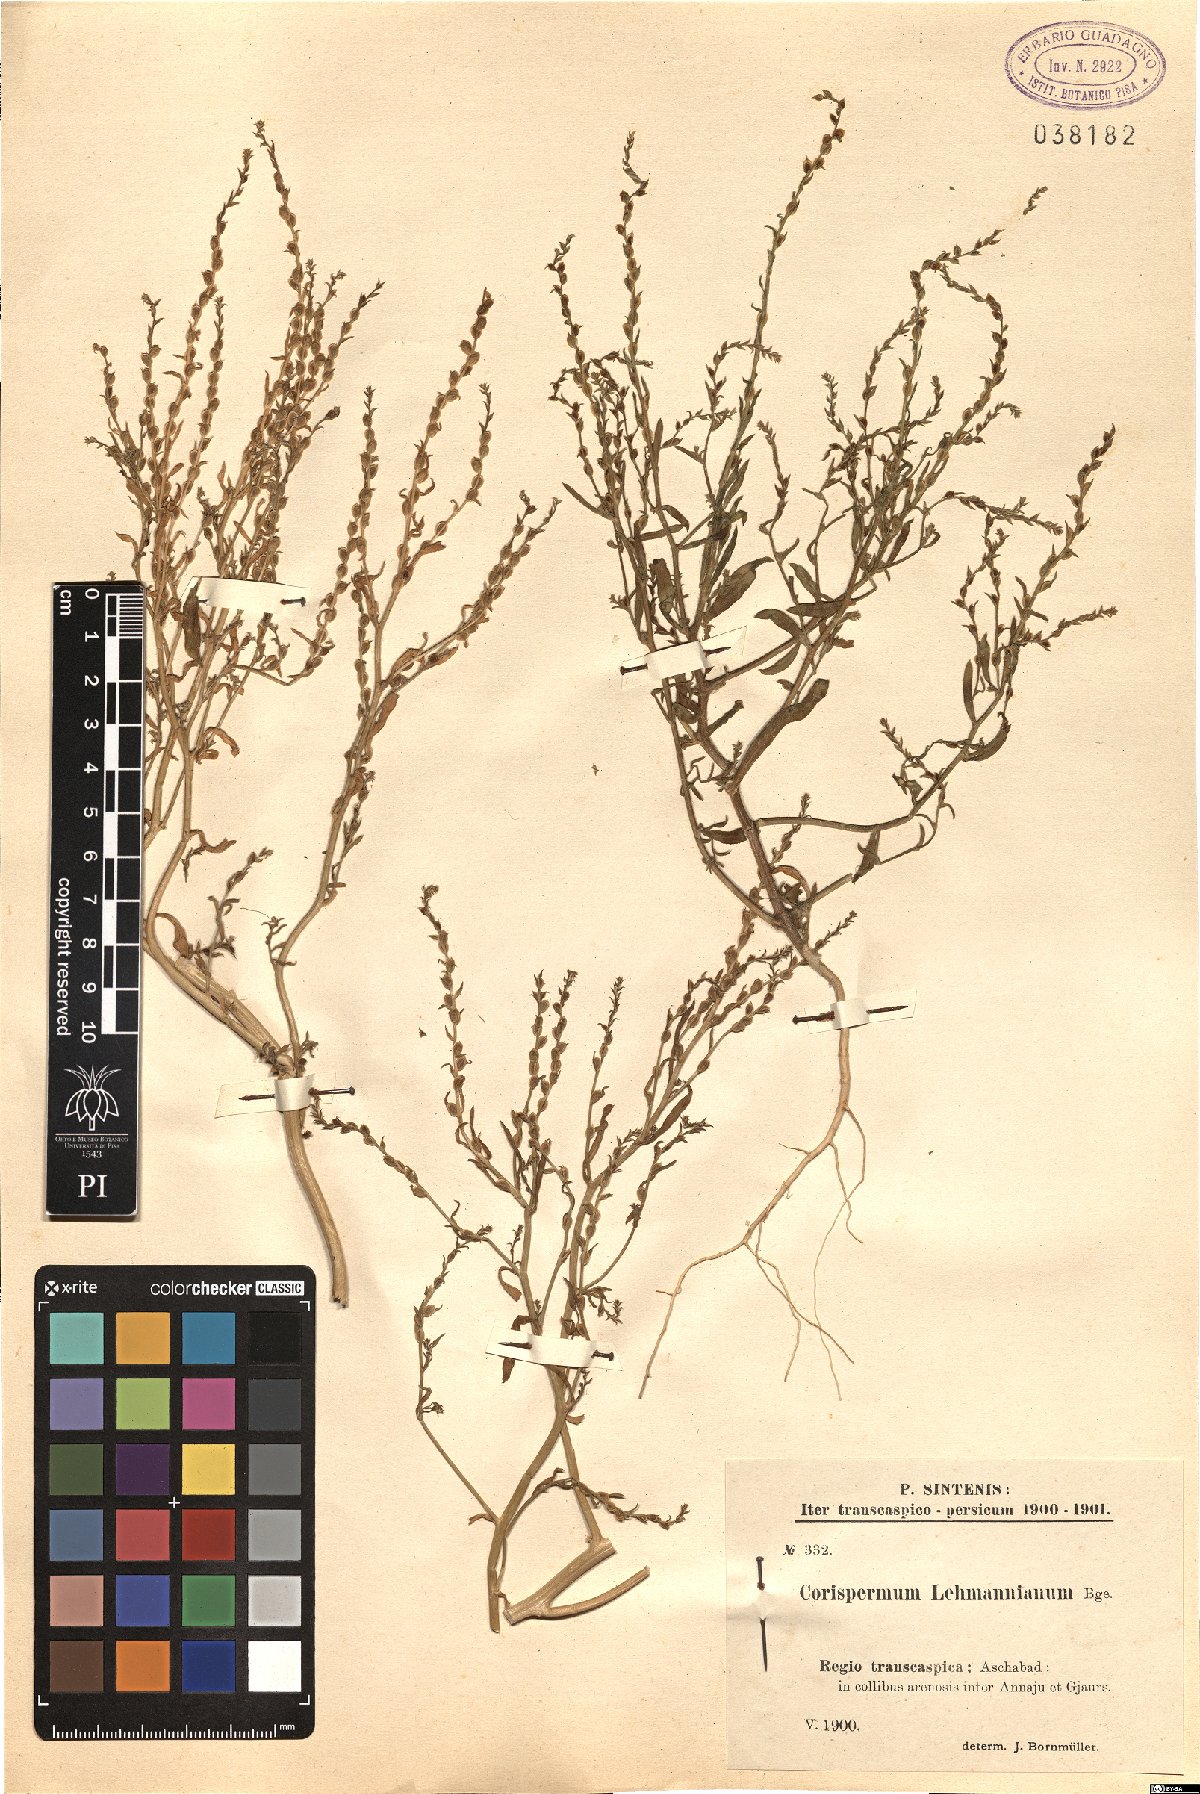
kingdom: Plantae
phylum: Tracheophyta
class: Magnoliopsida
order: Caryophyllales
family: Amaranthaceae
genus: Corispermum
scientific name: Corispermum lehmannianum
